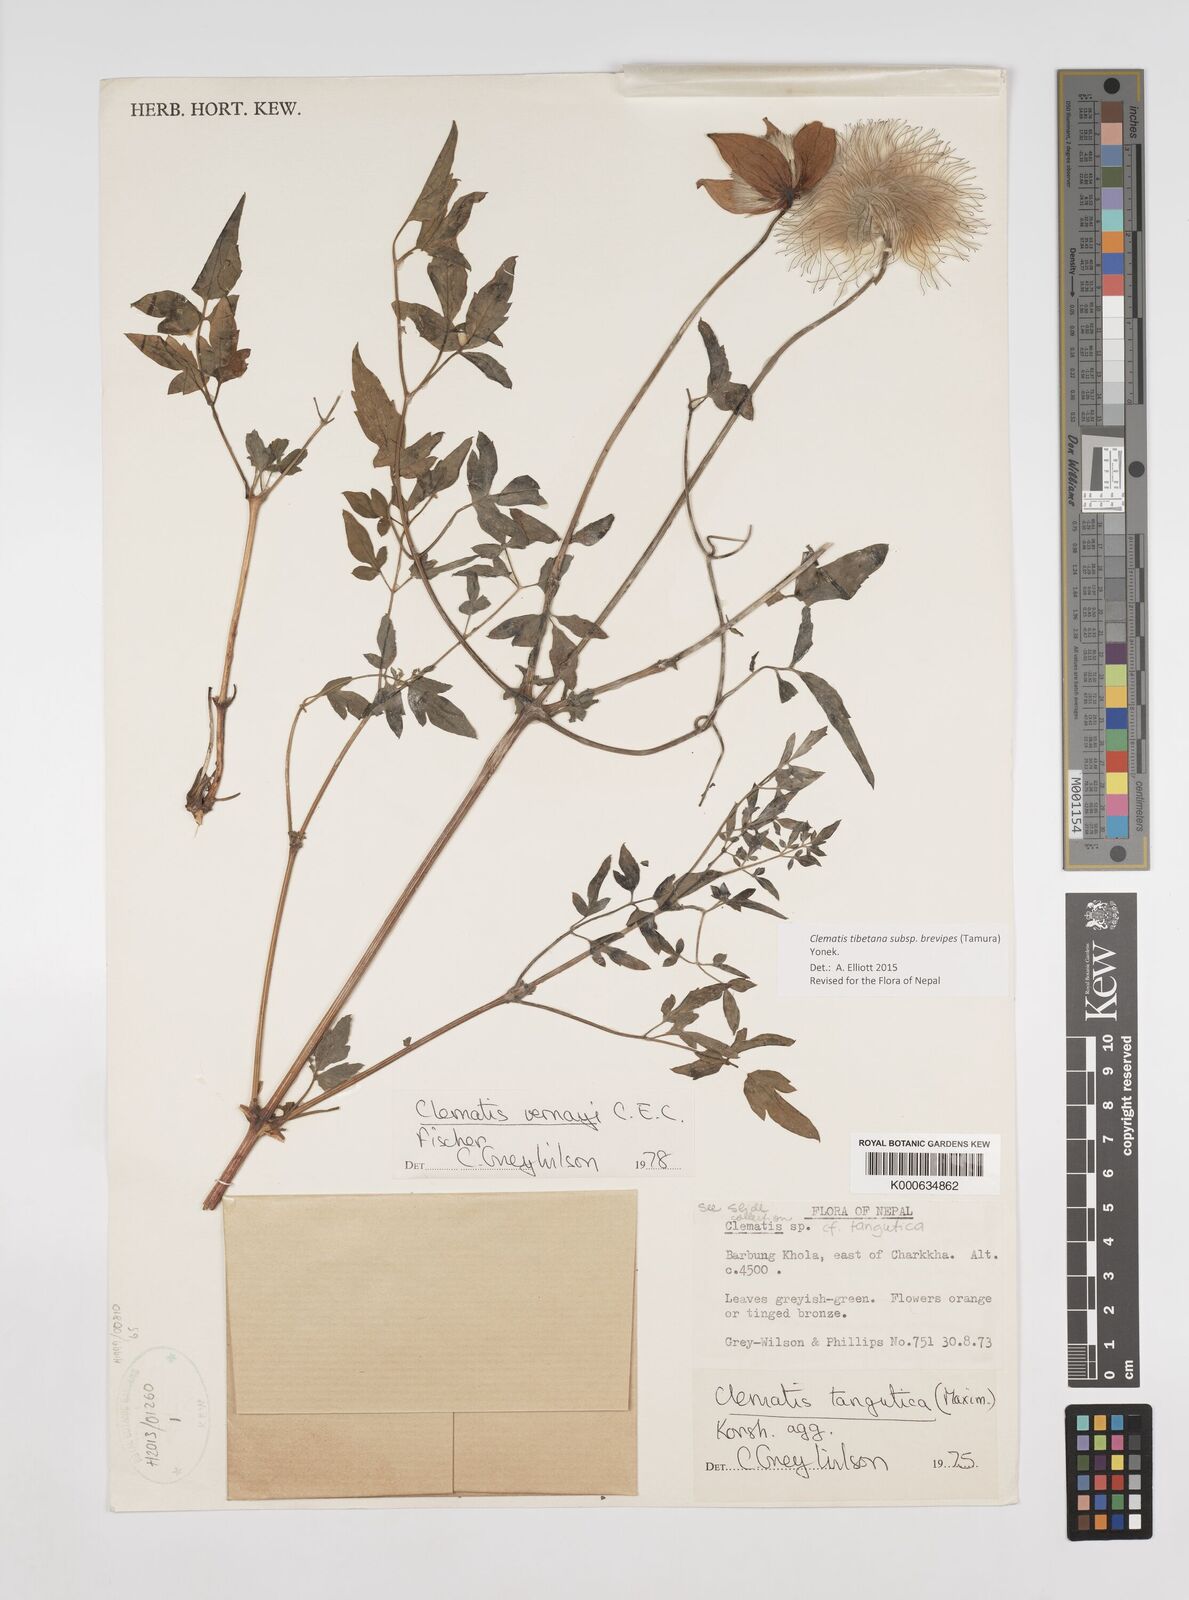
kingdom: Plantae
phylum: Tracheophyta
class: Magnoliopsida
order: Ranunculales
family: Ranunculaceae
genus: Clematis
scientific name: Clematis tibetana
